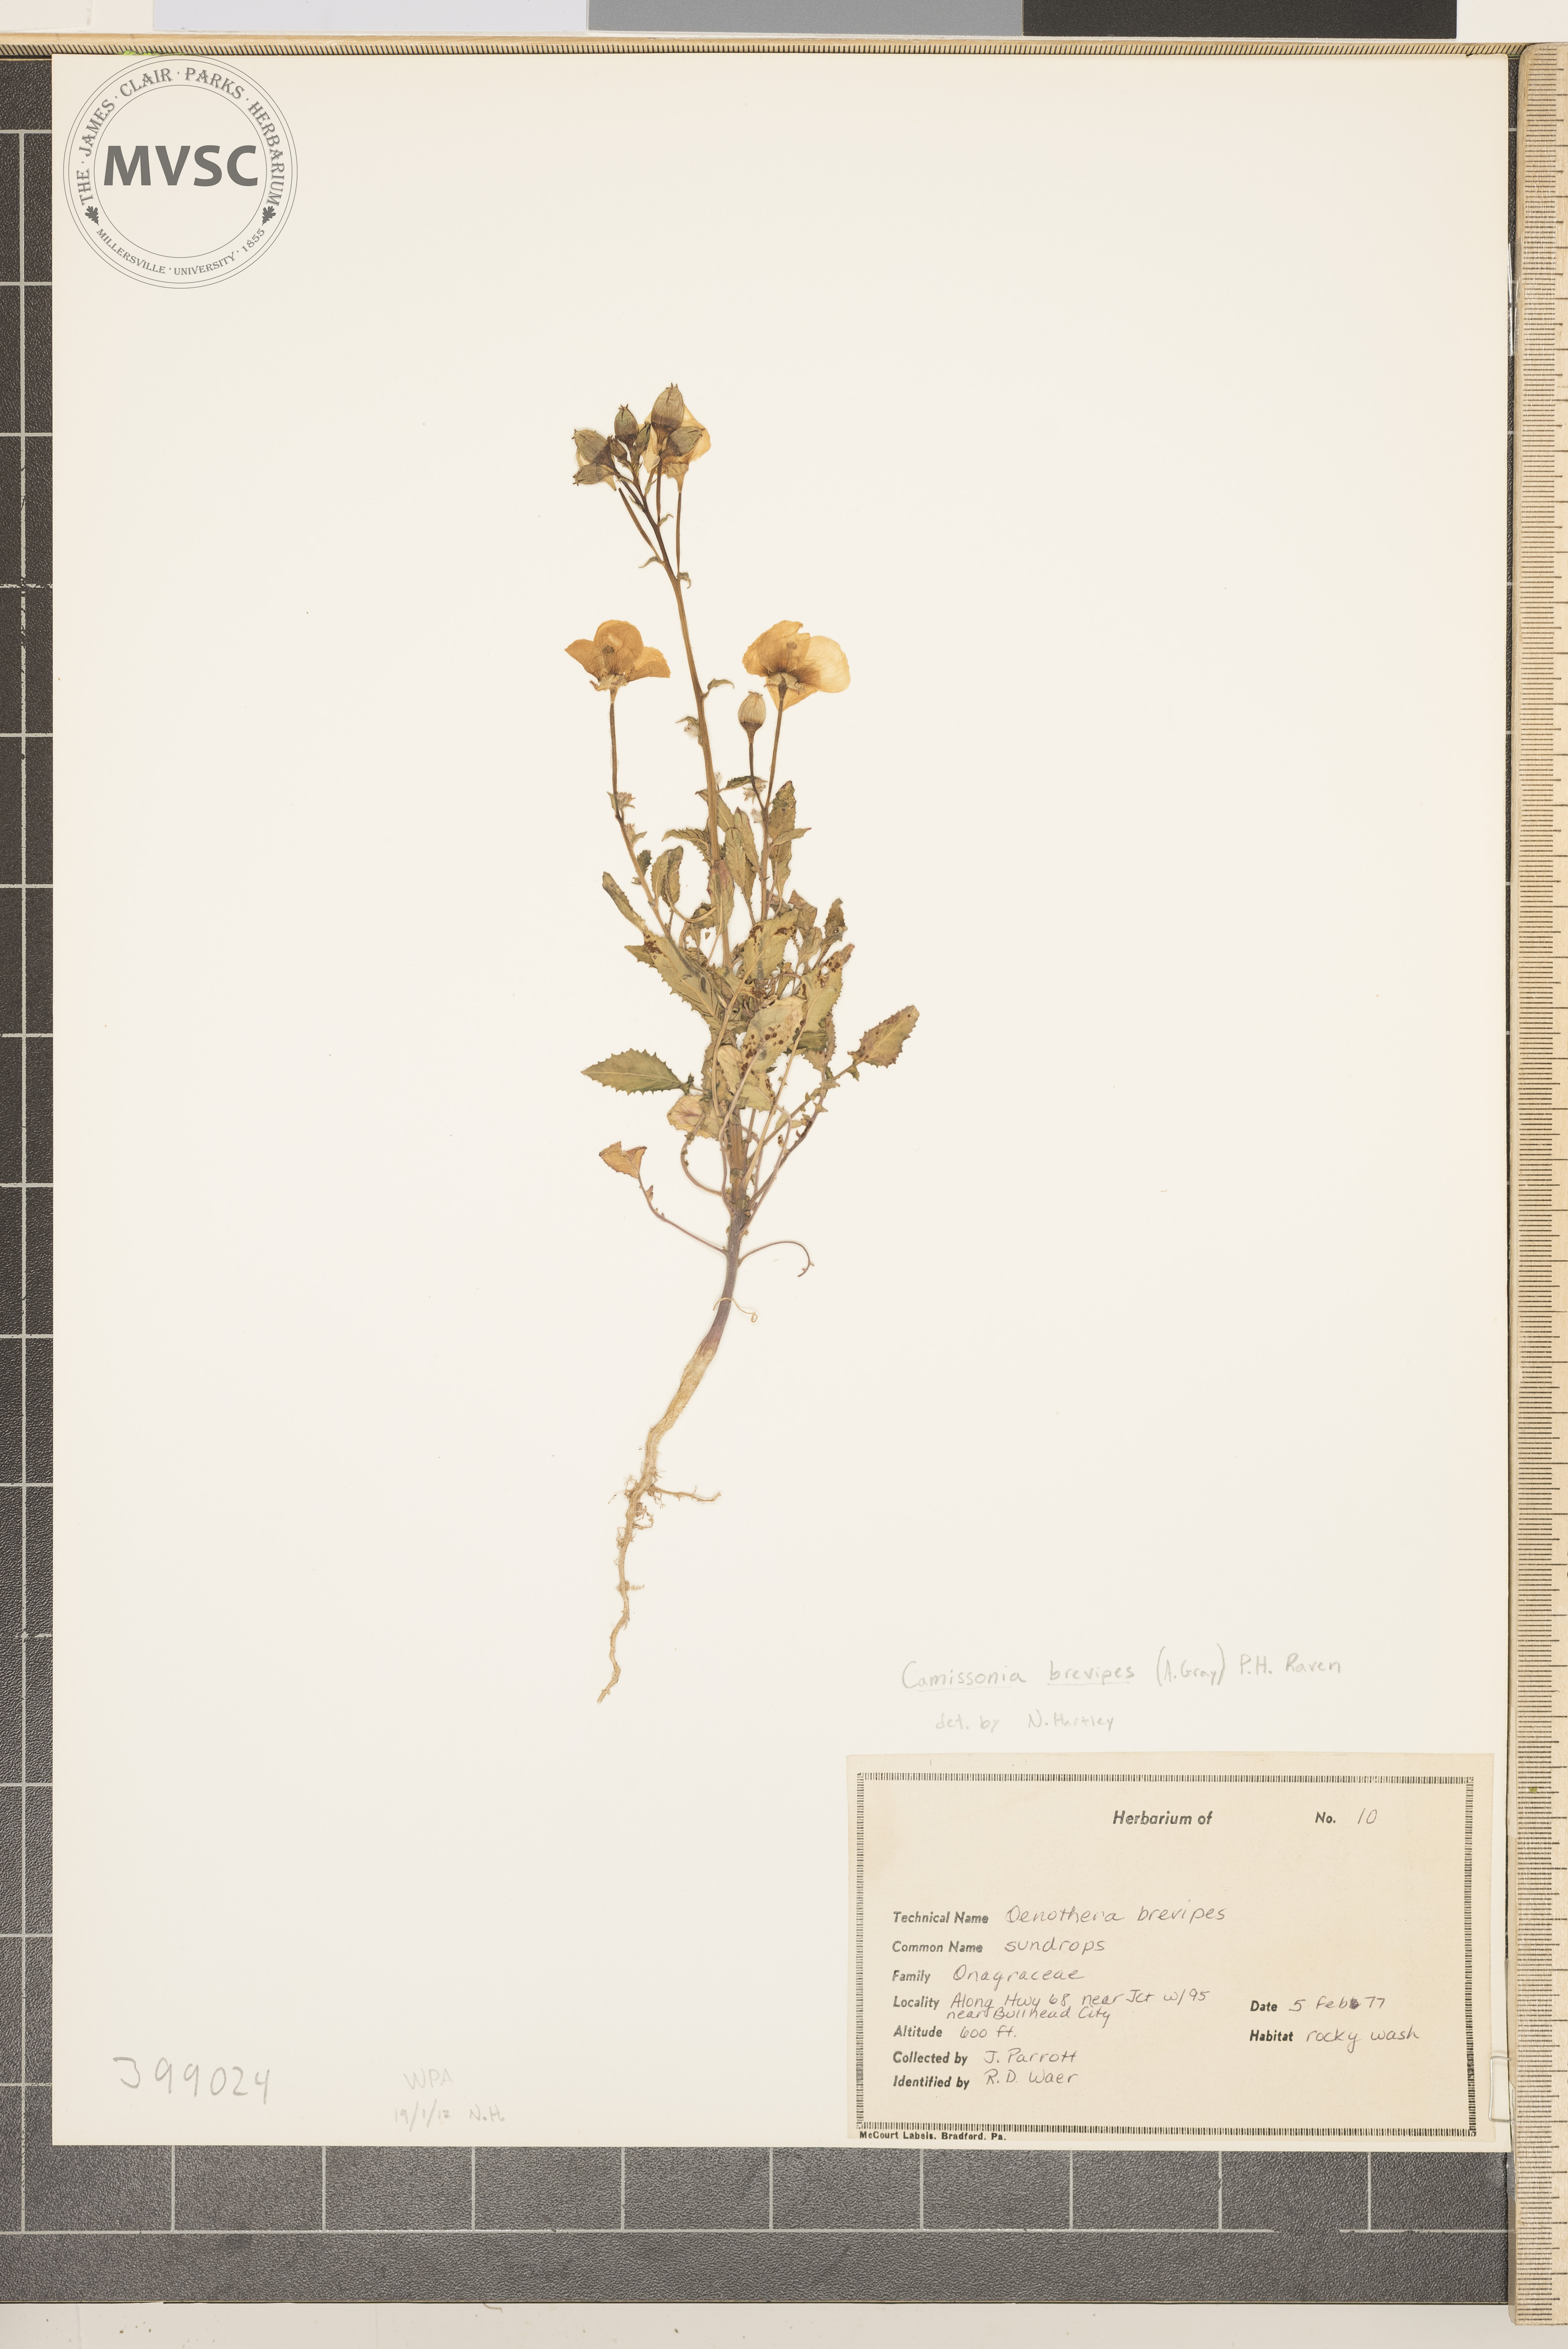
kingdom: Plantae
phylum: Tracheophyta
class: Magnoliopsida
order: Myrtales
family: Onagraceae
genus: Chylismia
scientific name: Chylismia brevipes
